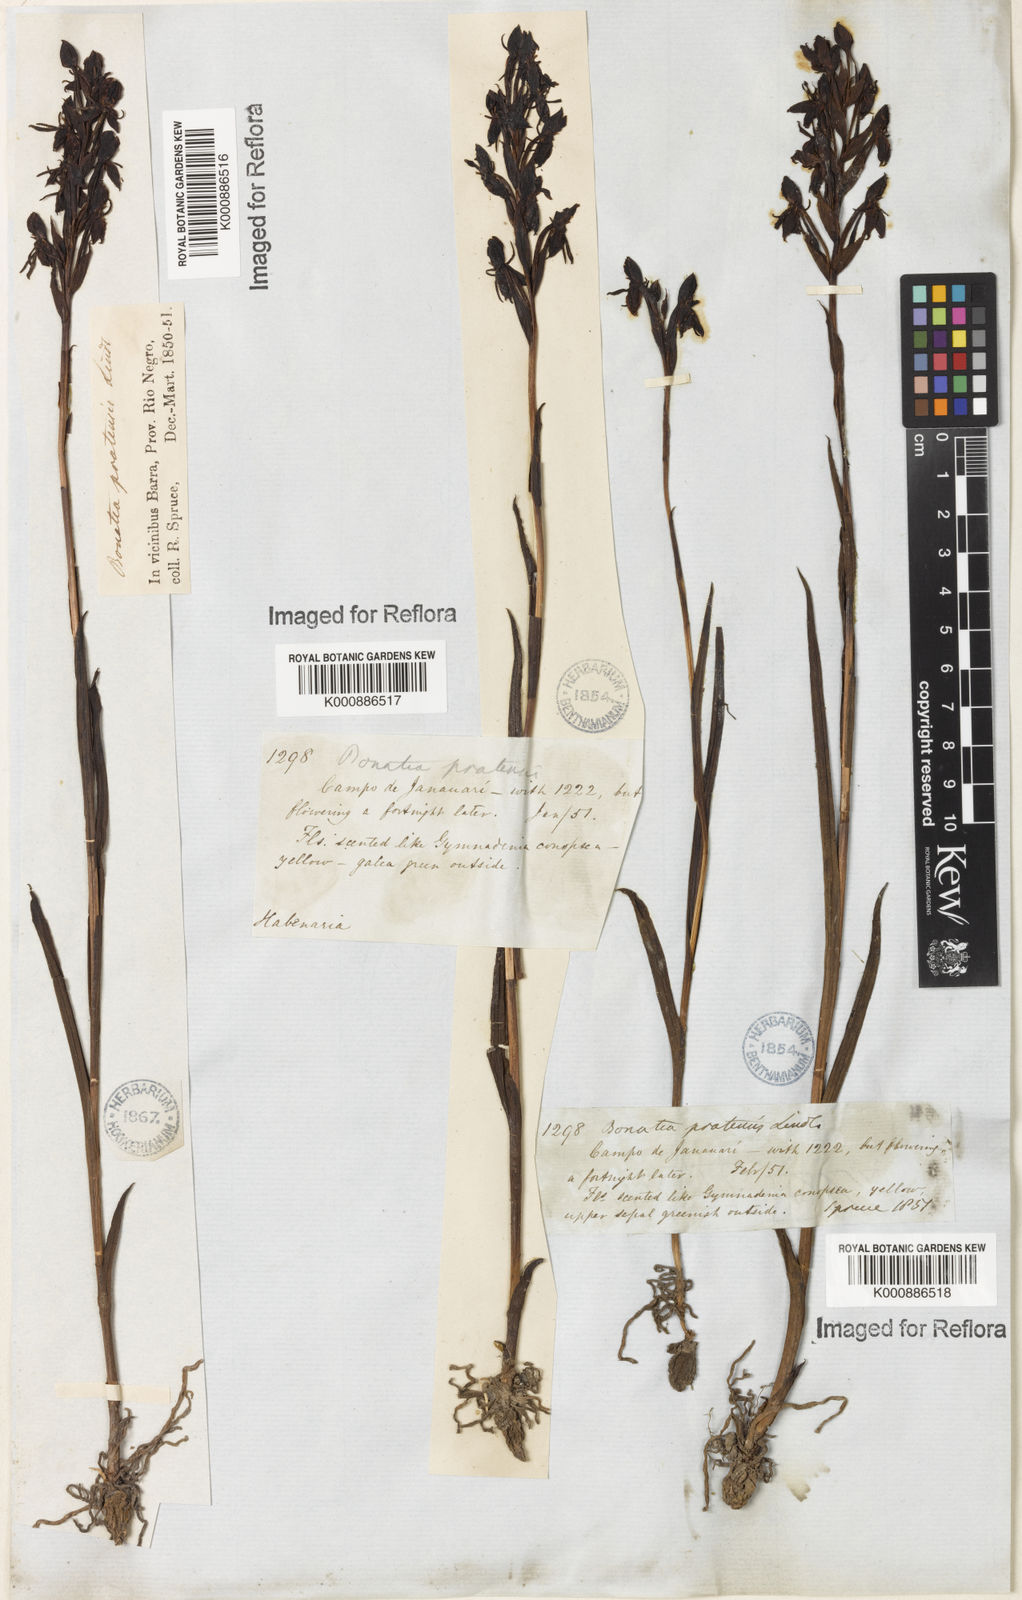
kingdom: Plantae
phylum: Tracheophyta
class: Liliopsida
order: Asparagales
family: Orchidaceae
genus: Habenaria
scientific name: Habenaria pratensis
